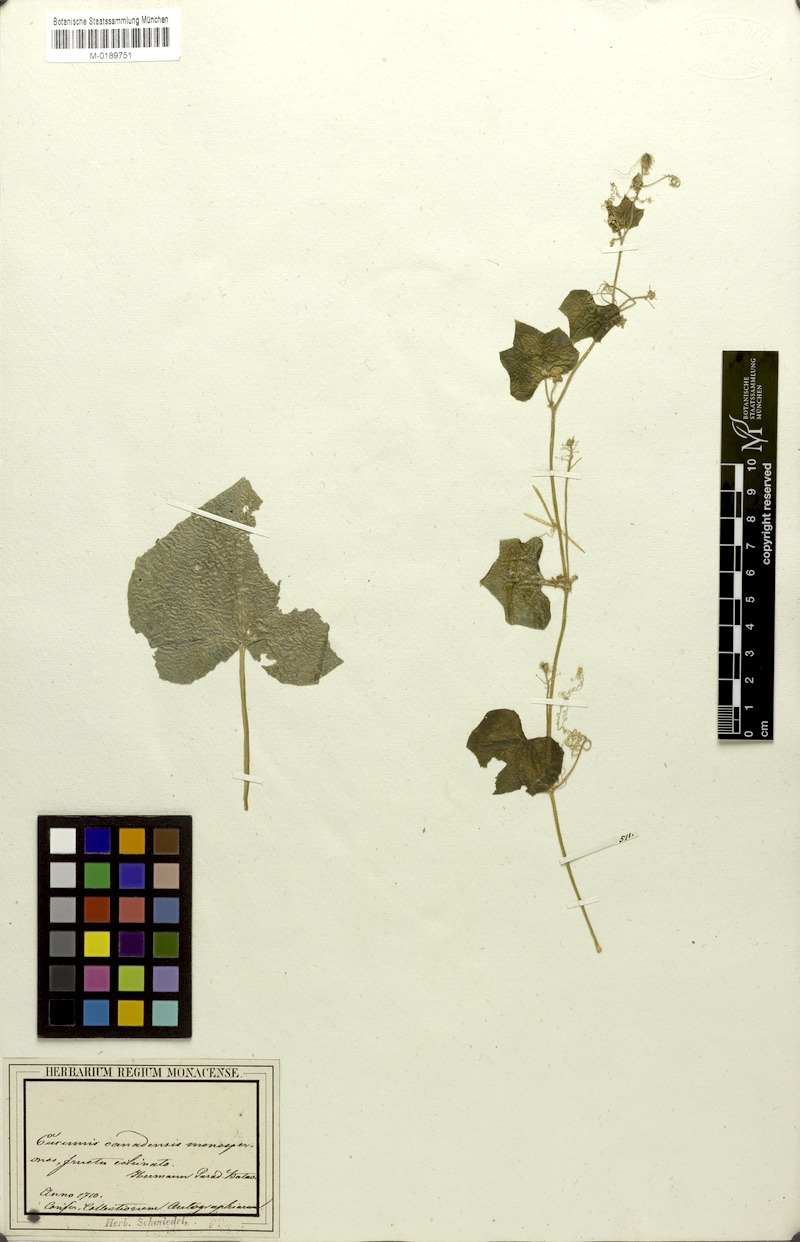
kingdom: Plantae
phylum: Tracheophyta
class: Magnoliopsida
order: Cucurbitales
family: Cucurbitaceae
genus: Sicyos
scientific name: Sicyos angulatus
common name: Angled burr cucumber
